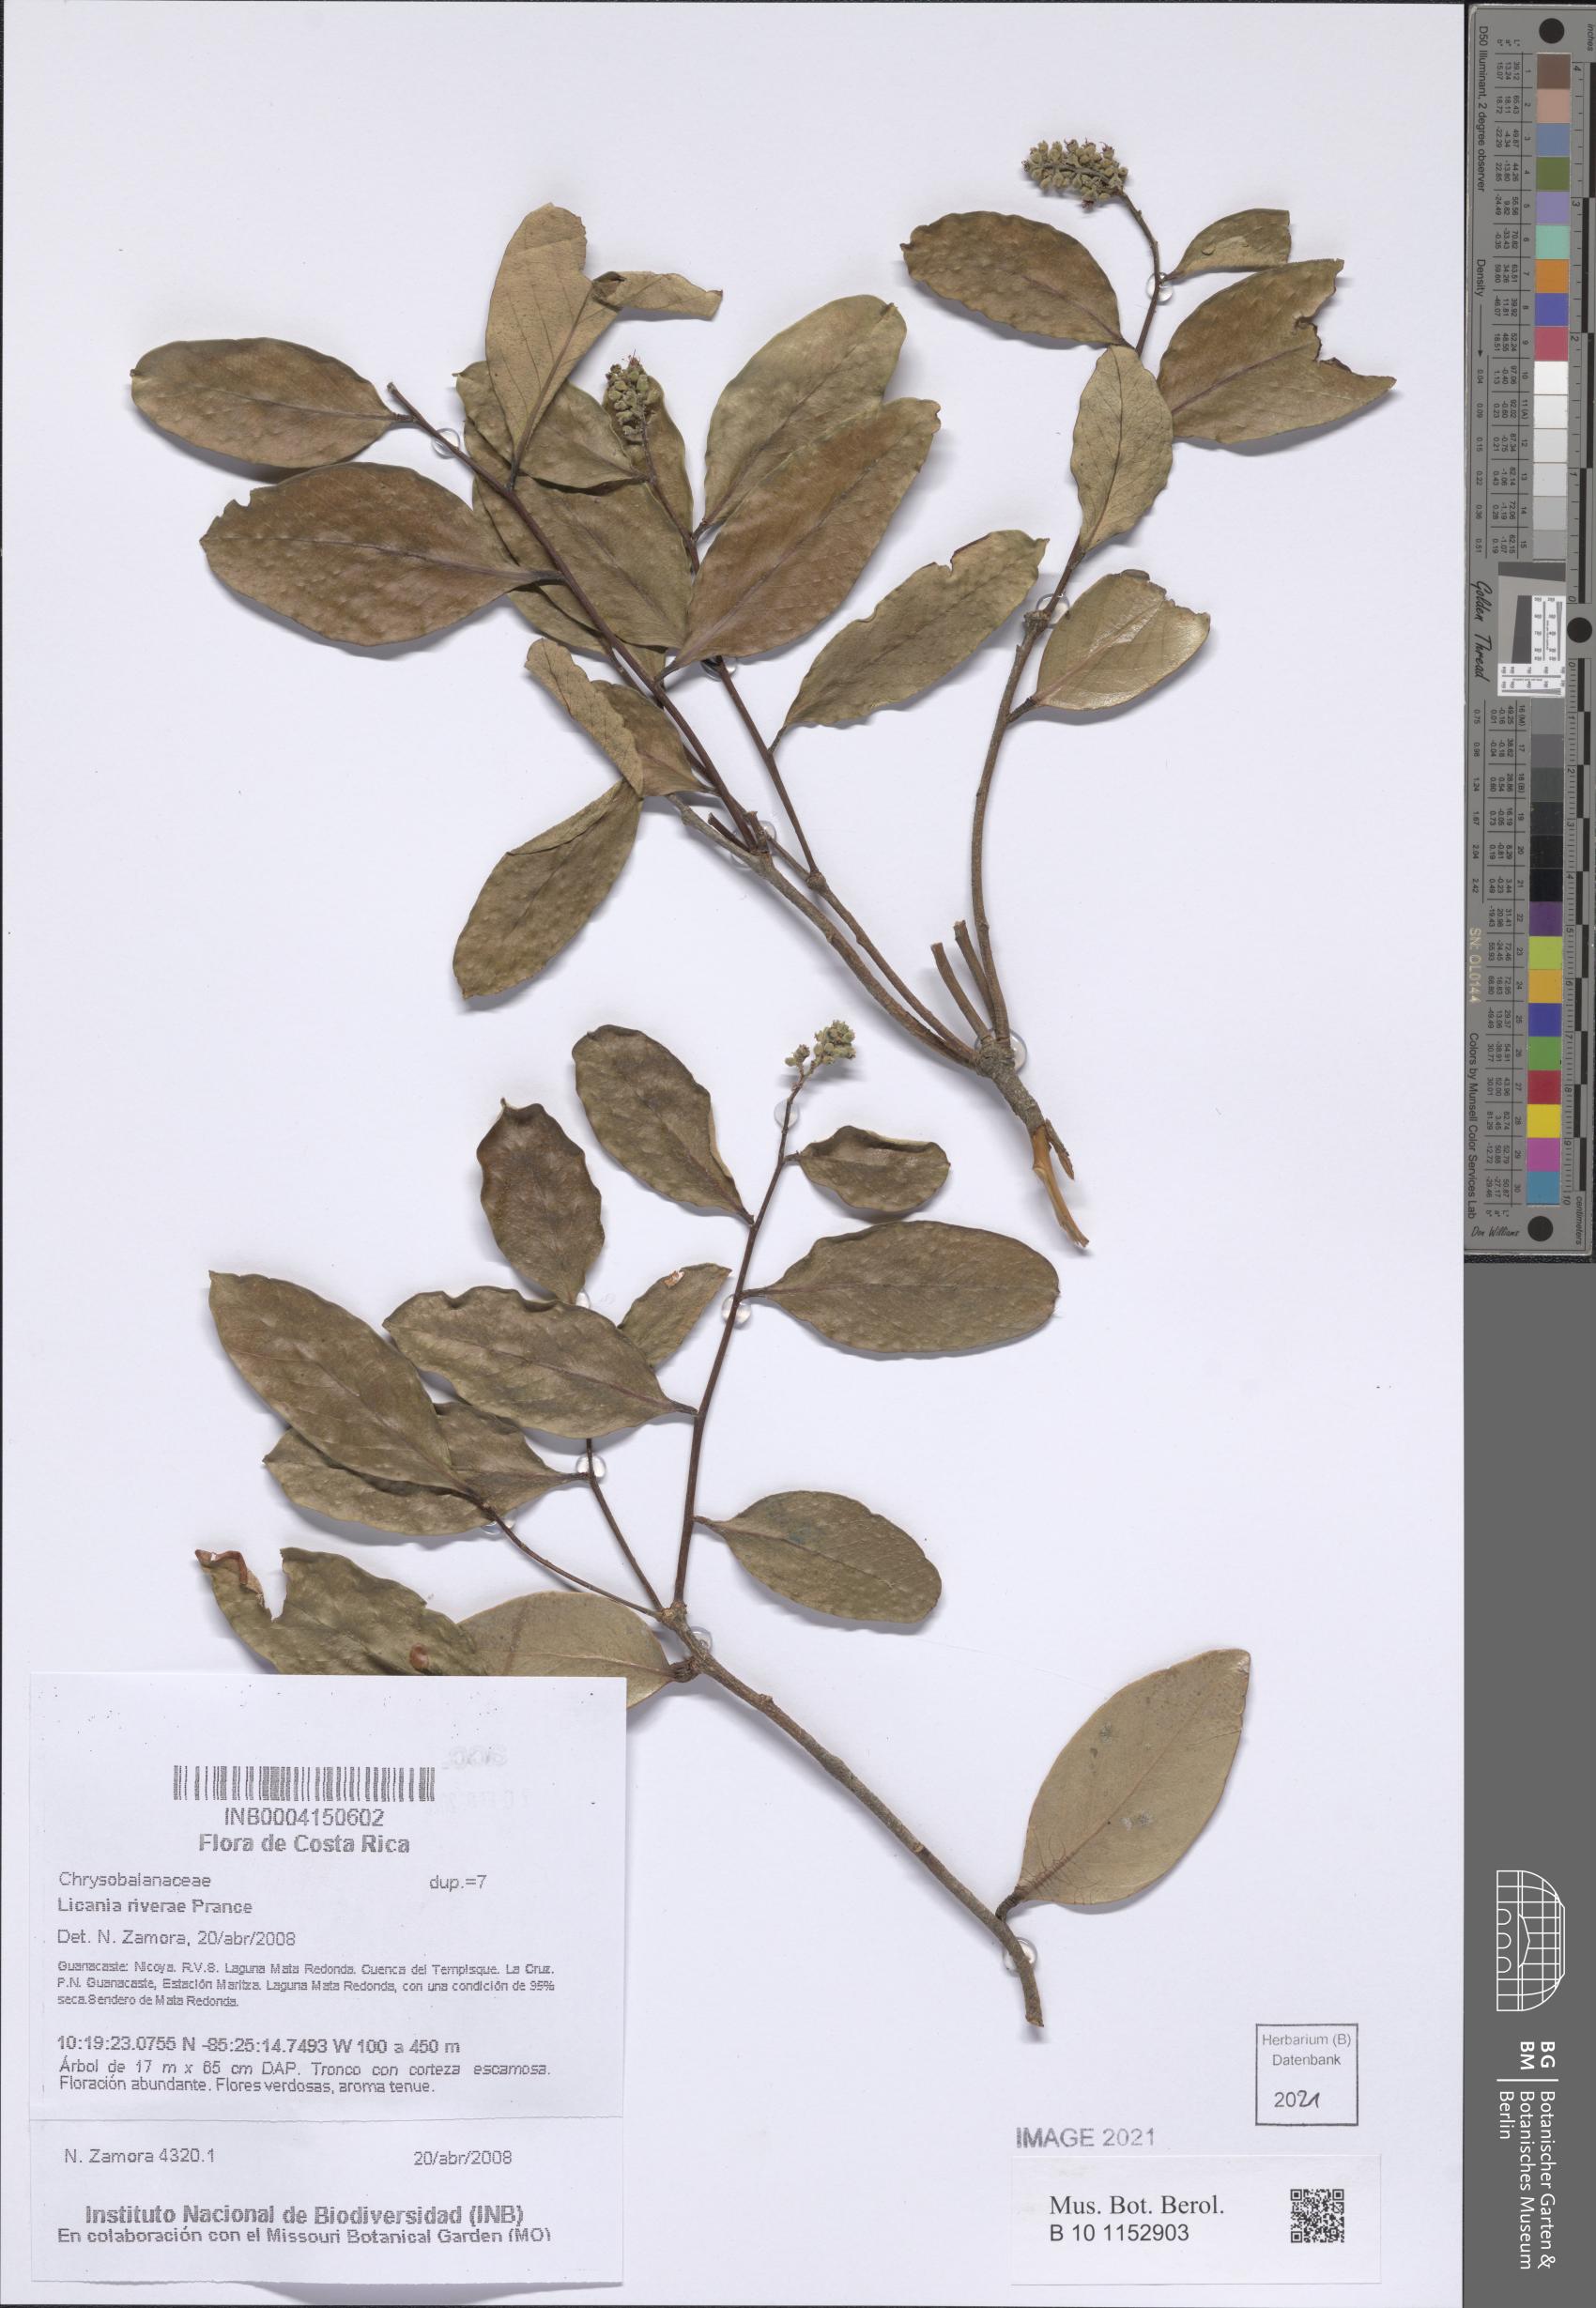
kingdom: Plantae
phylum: Tracheophyta
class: Magnoliopsida
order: Malpighiales
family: Chrysobalanaceae
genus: Geobalanus
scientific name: Geobalanus riverae
